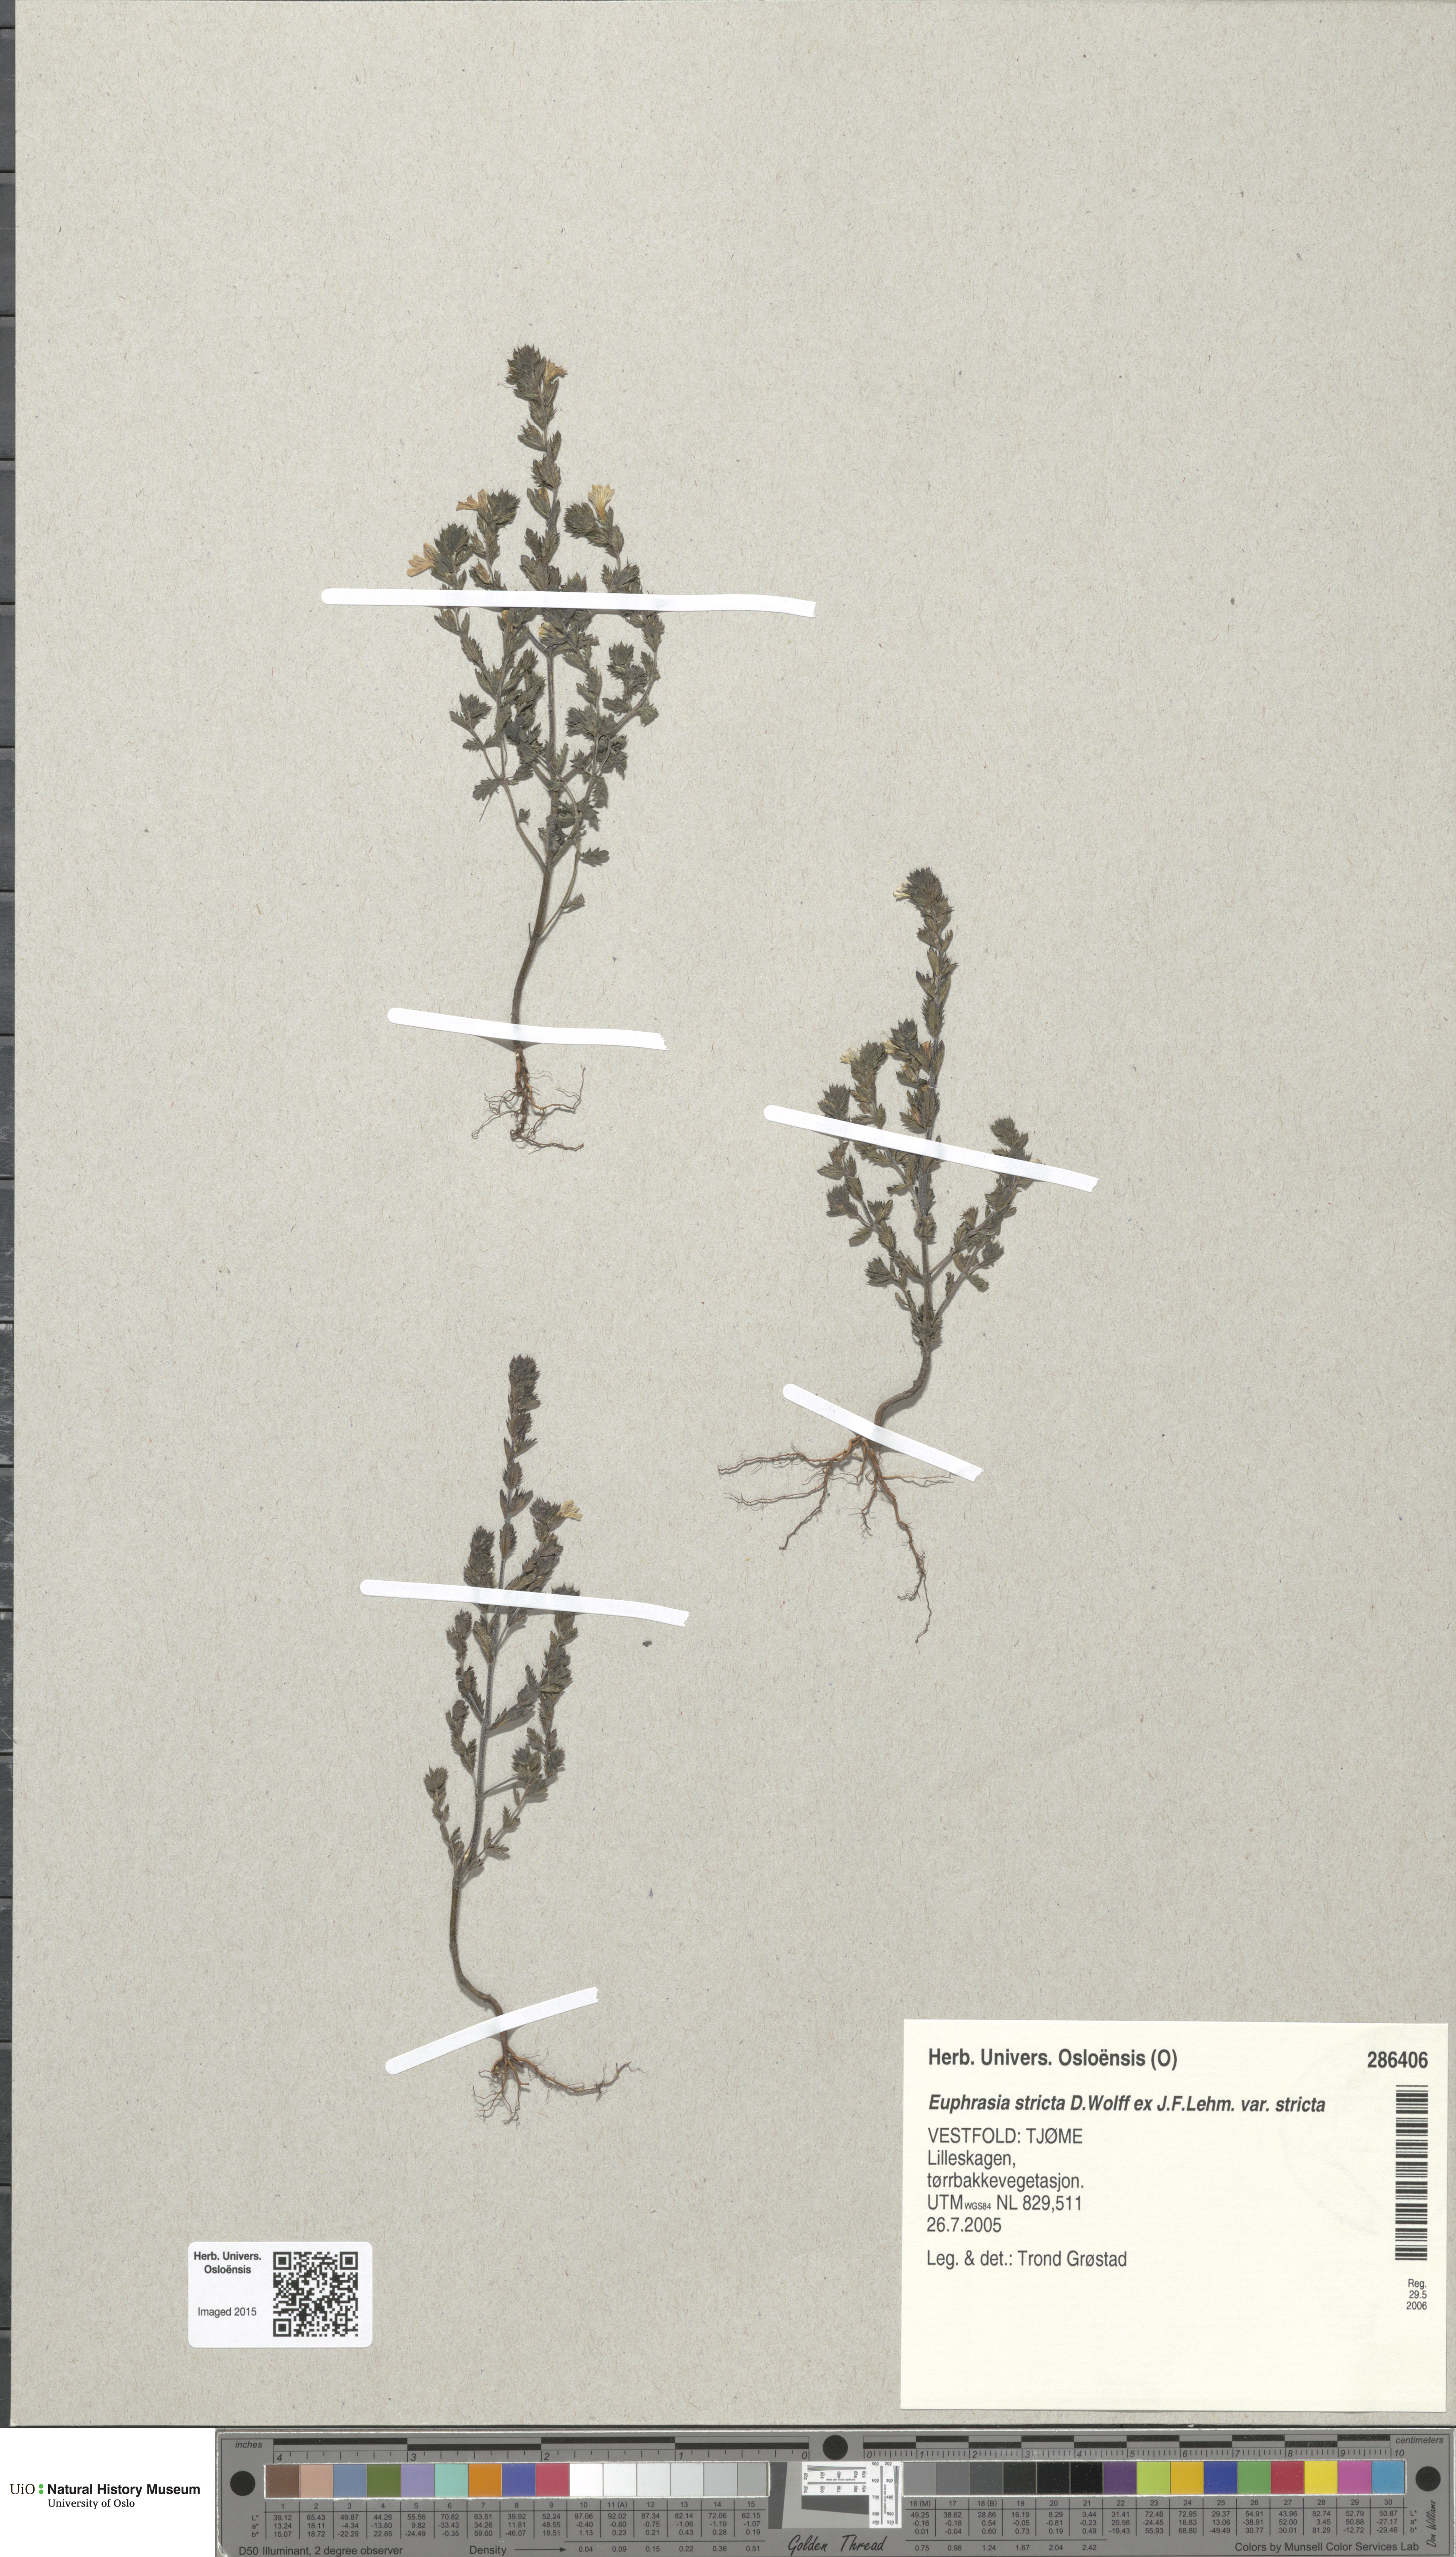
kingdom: Plantae
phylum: Tracheophyta
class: Magnoliopsida
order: Lamiales
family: Orobanchaceae
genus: Euphrasia
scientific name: Euphrasia stricta
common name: Drug eyebright
